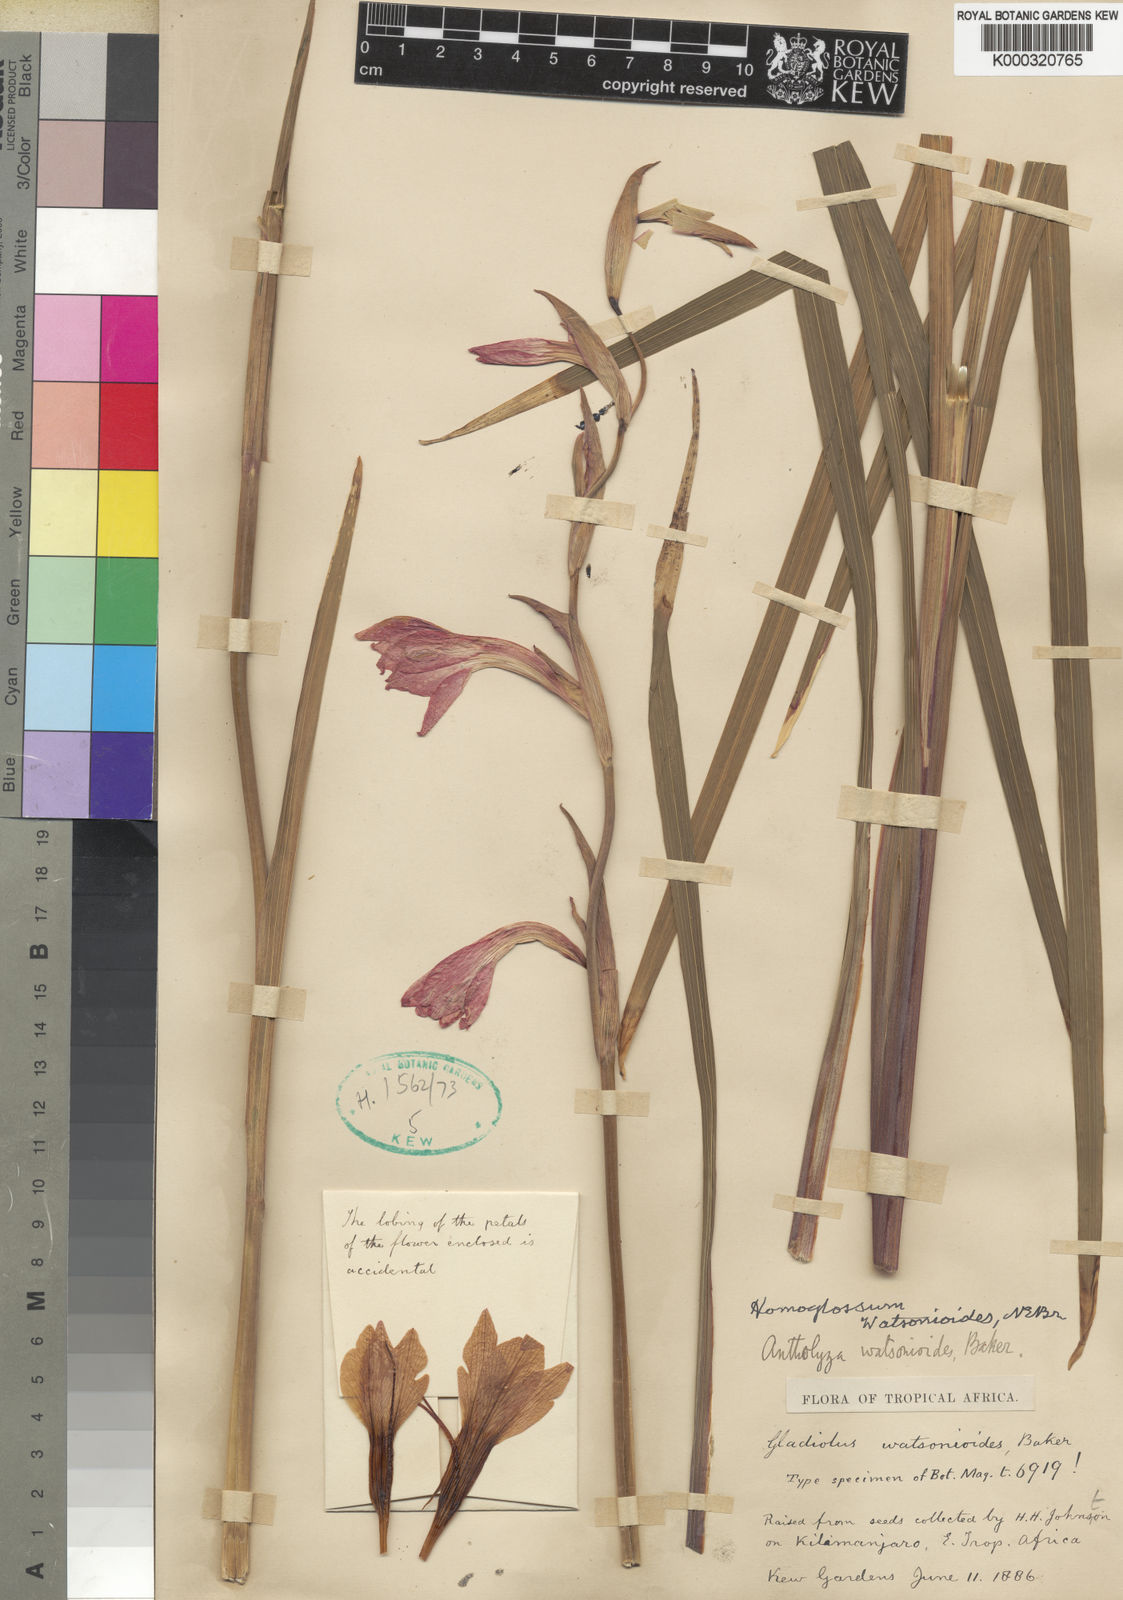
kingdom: Plantae
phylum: Tracheophyta
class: Liliopsida
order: Asparagales
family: Iridaceae
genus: Gladiolus
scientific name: Gladiolus watsonioides
